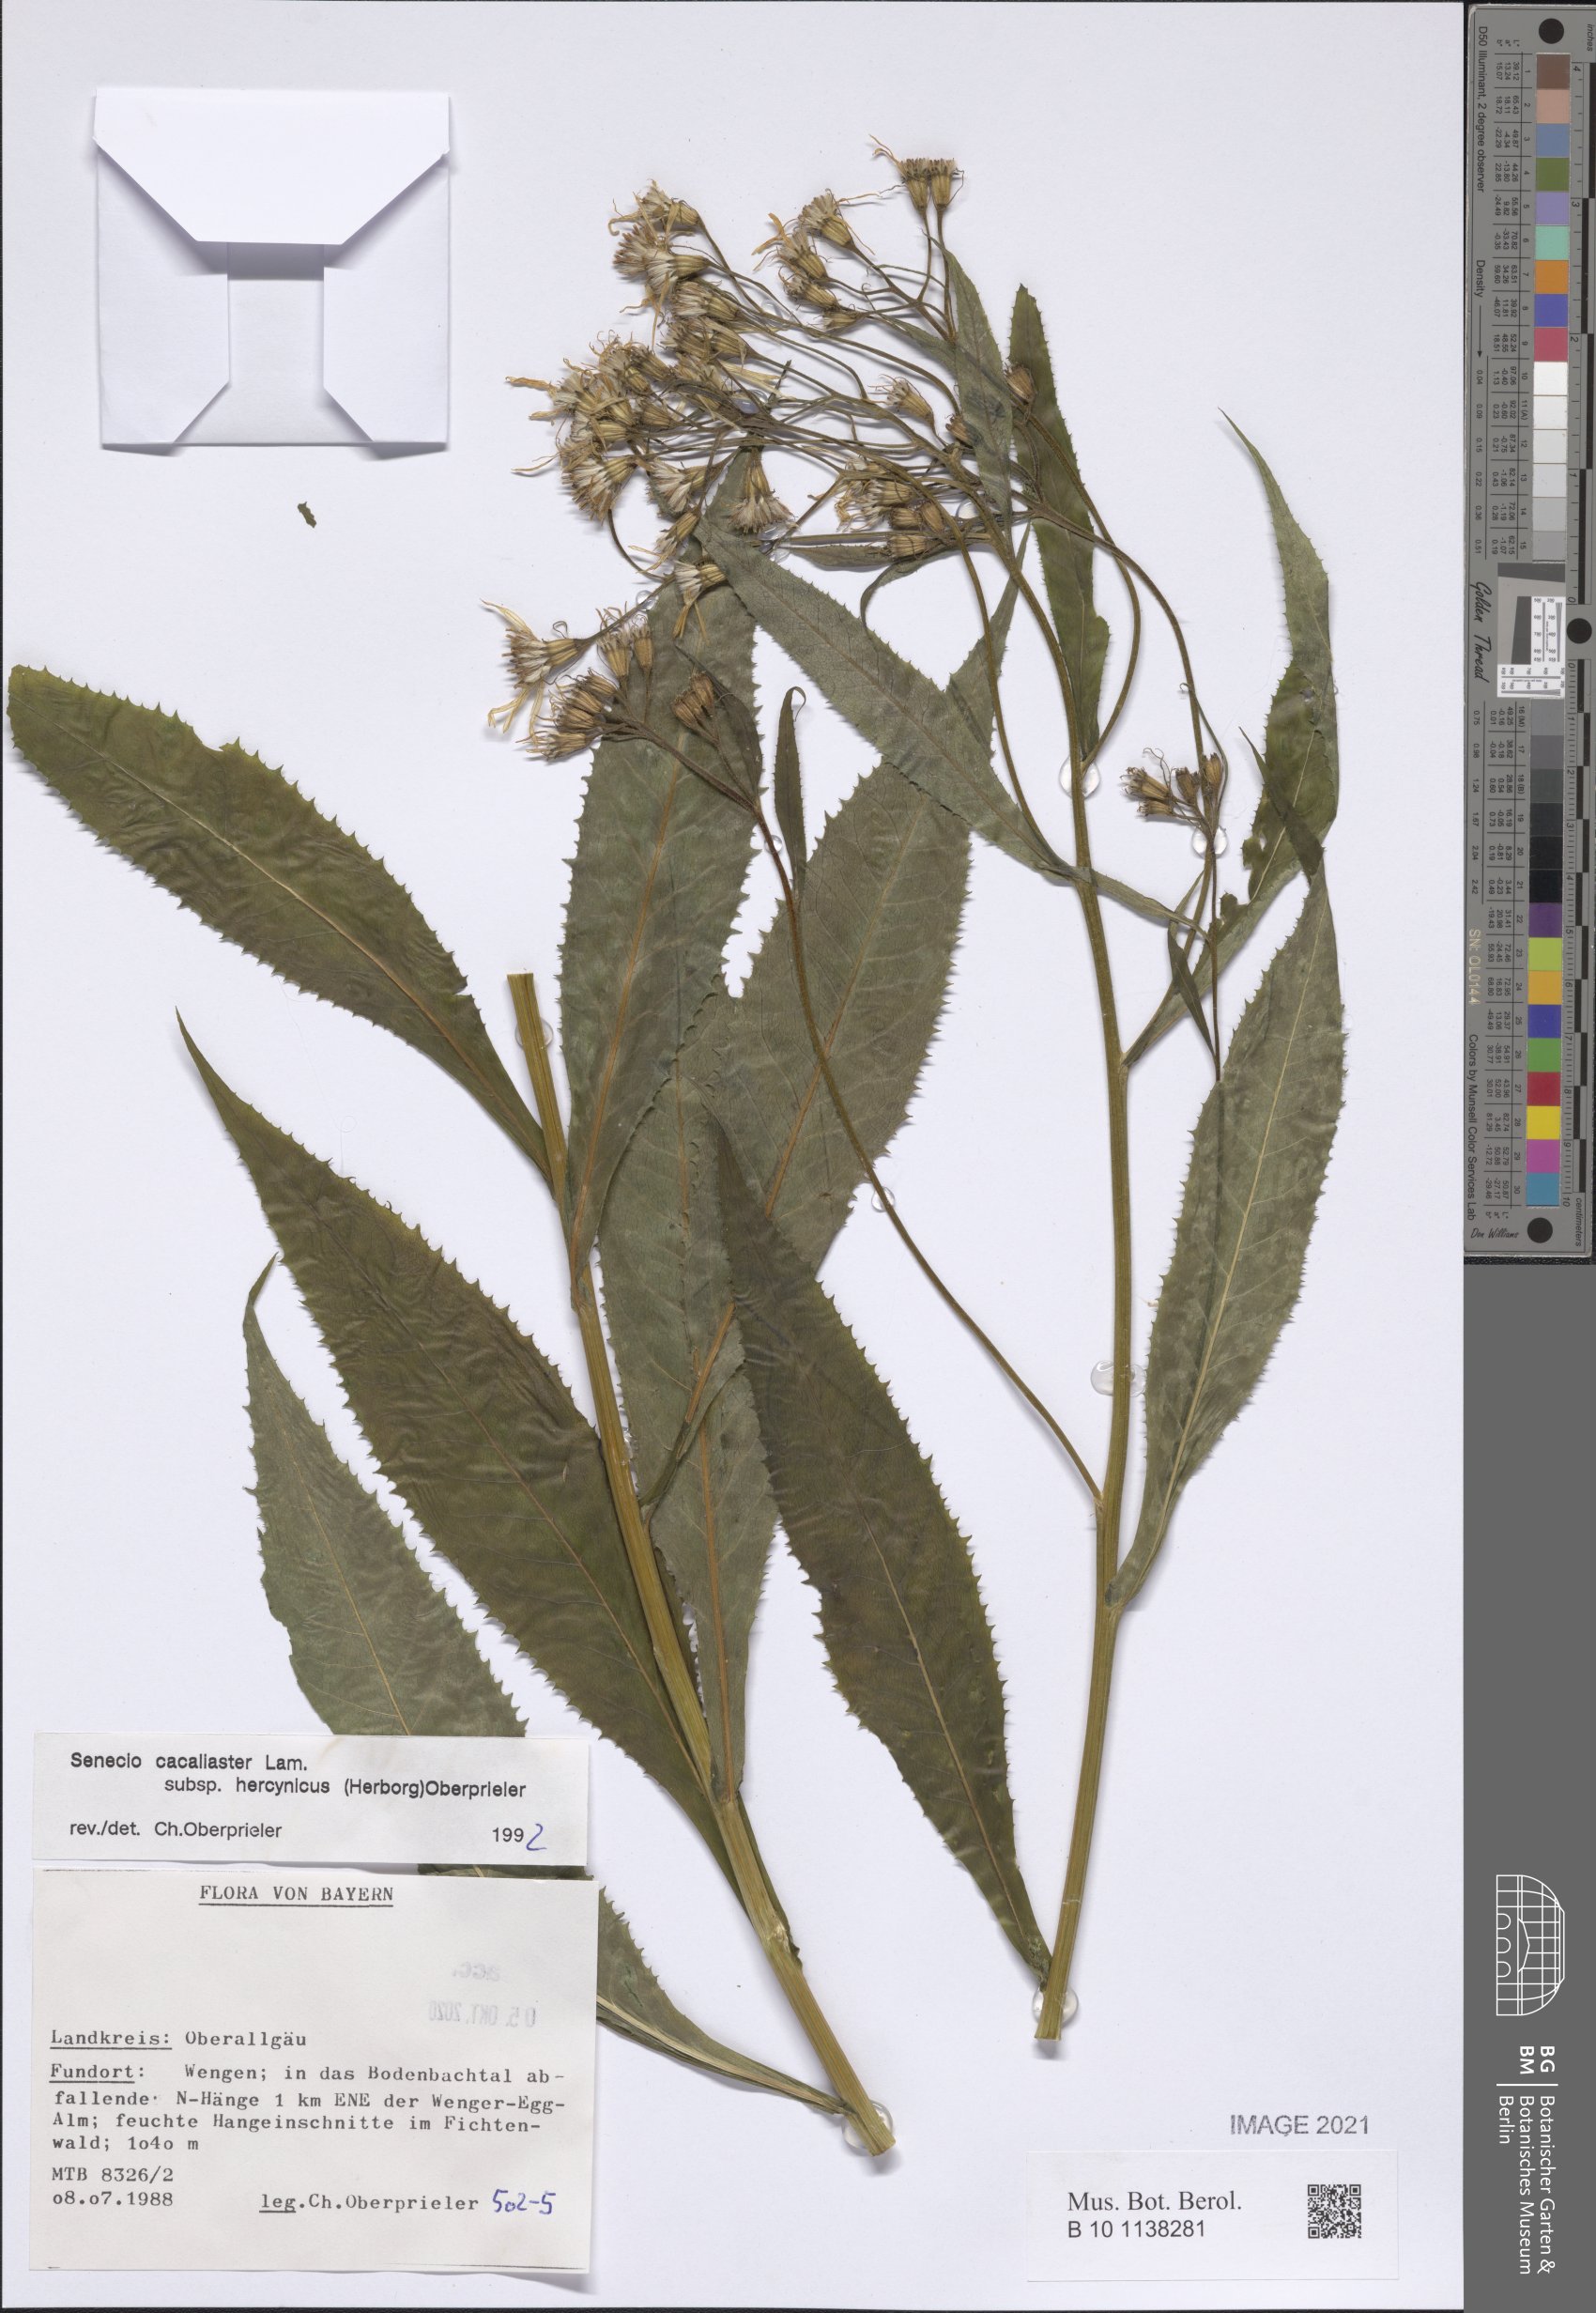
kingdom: Plantae
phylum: Tracheophyta
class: Magnoliopsida
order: Asterales
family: Asteraceae
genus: Senecio
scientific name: Senecio hercynicus
